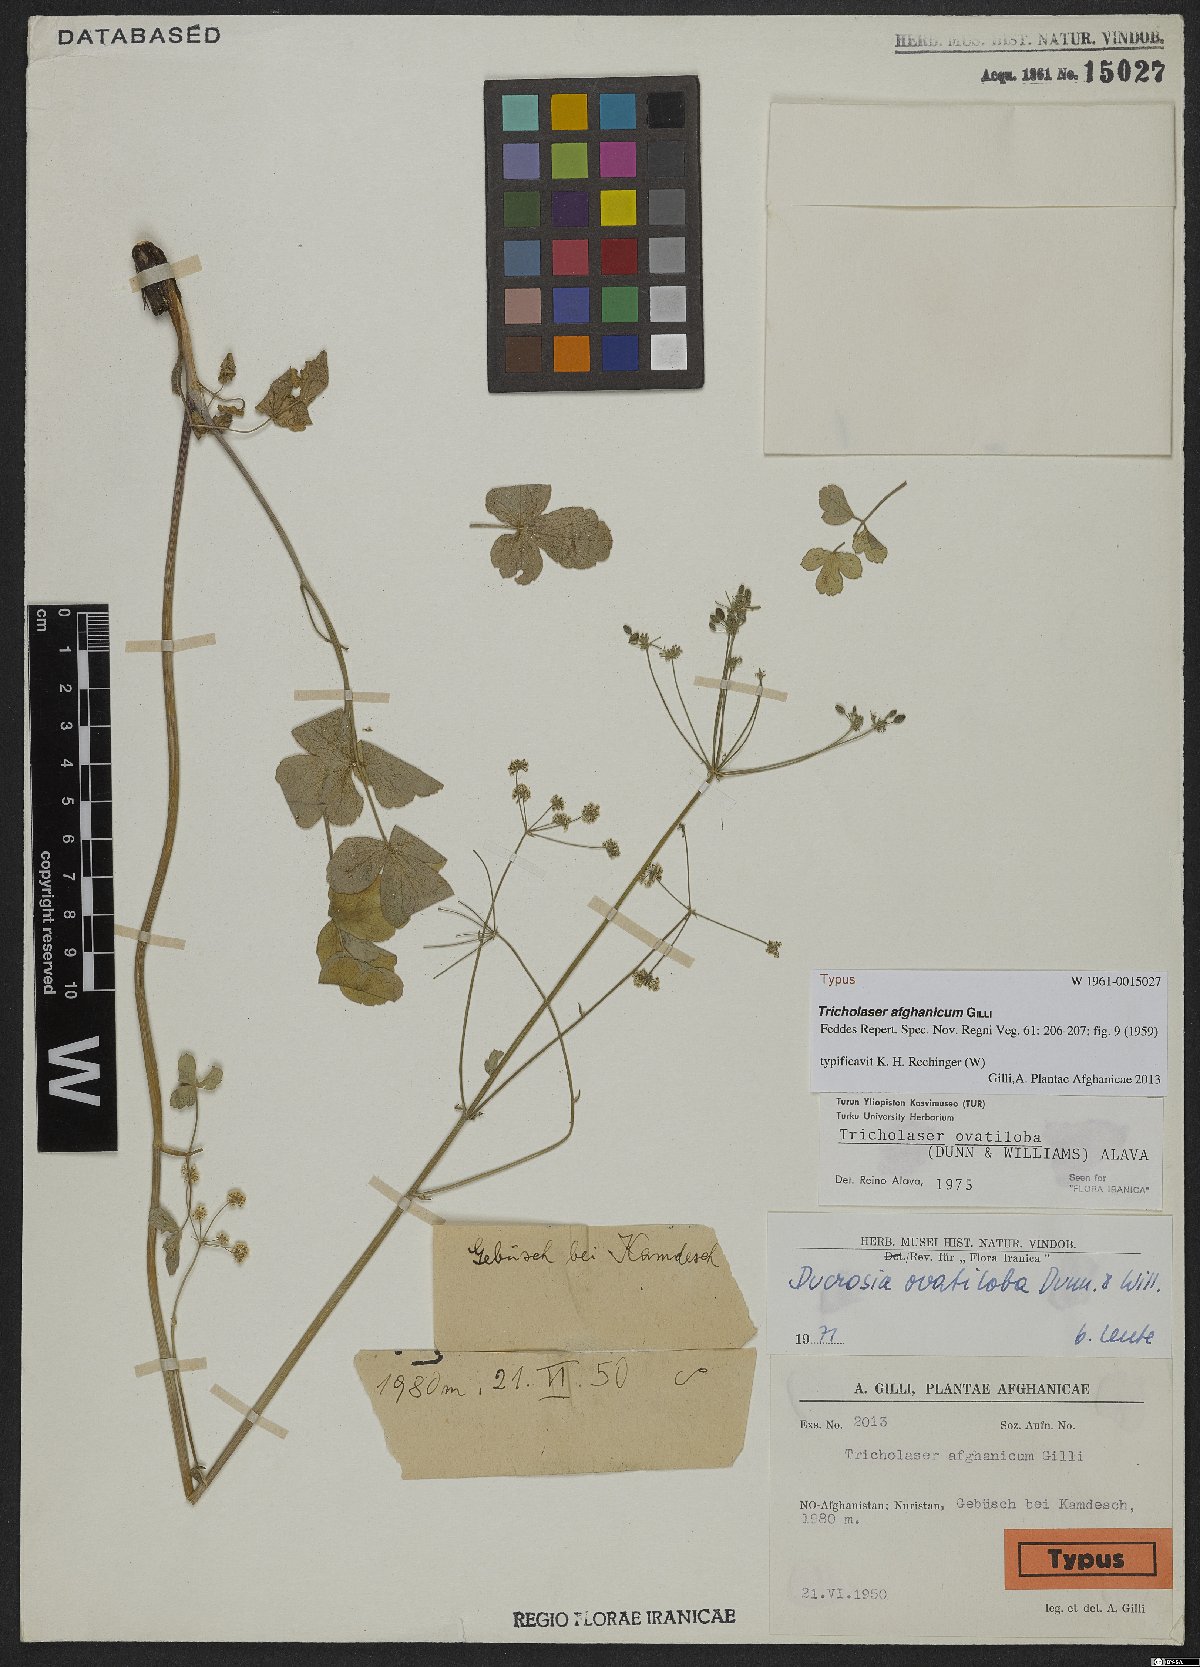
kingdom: Plantae
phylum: Tracheophyta
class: Magnoliopsida
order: Apiales
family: Apiaceae
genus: Tricholaser
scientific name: Tricholaser ovatilobum
